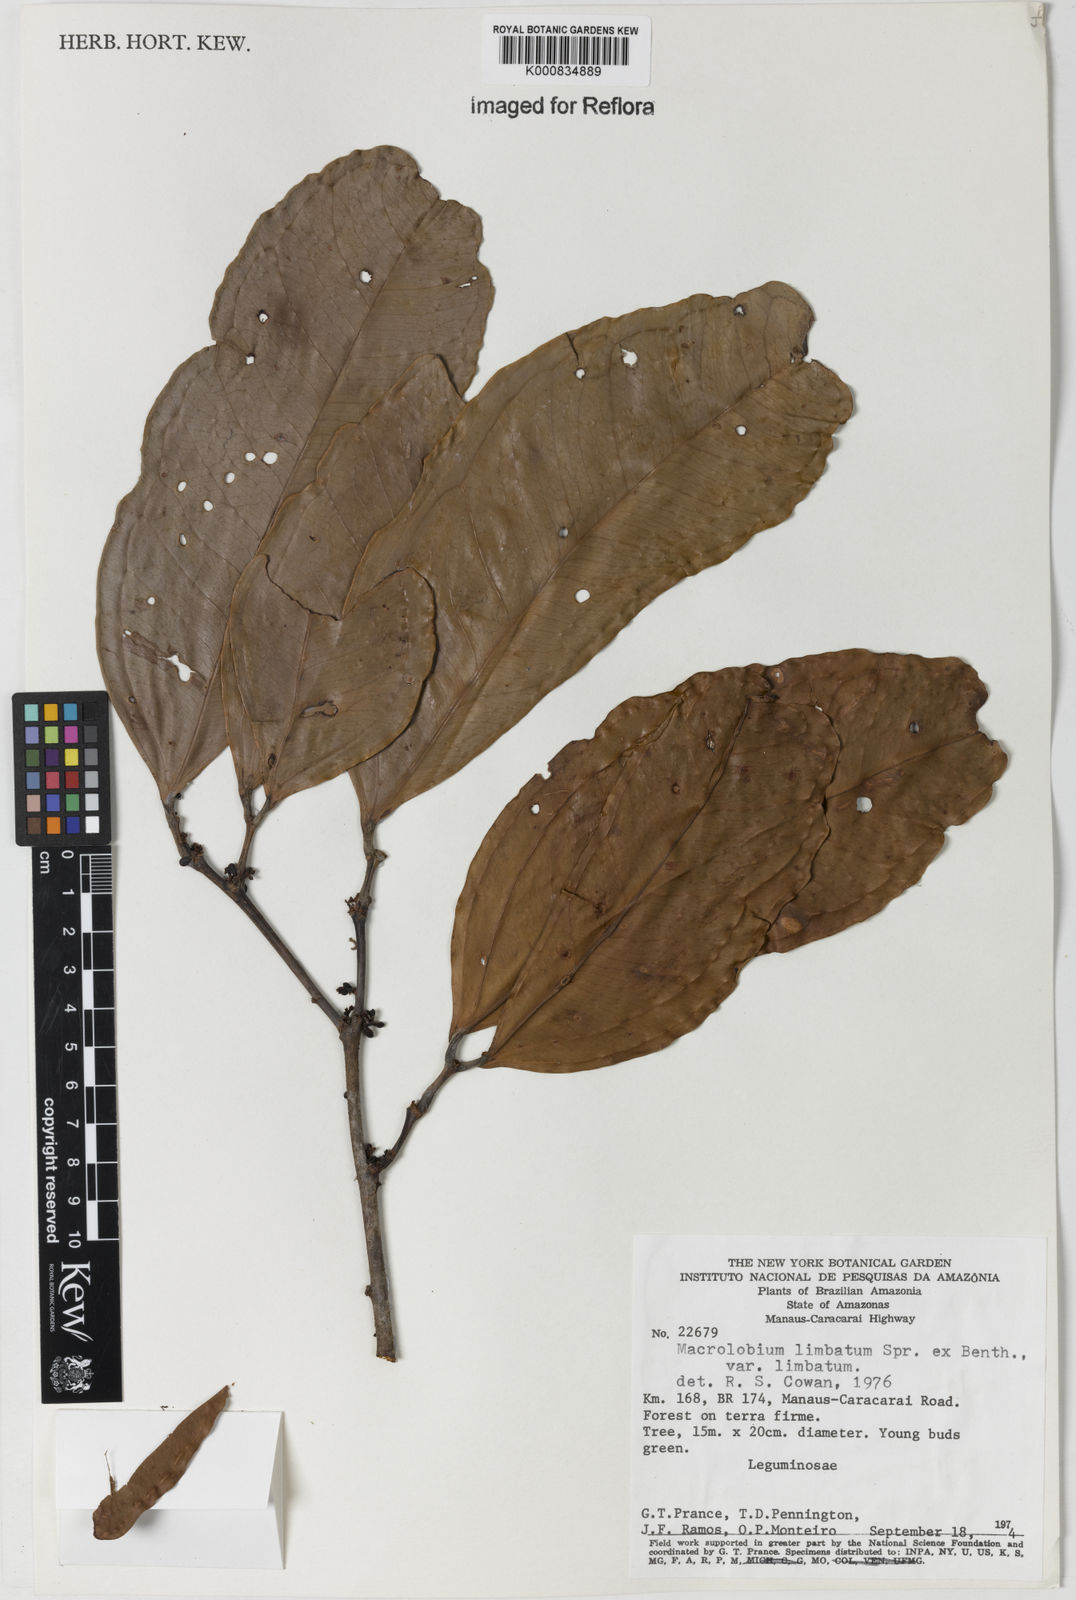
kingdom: Plantae
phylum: Tracheophyta
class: Magnoliopsida
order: Fabales
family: Fabaceae
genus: Macrolobium
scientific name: Macrolobium limbatum
